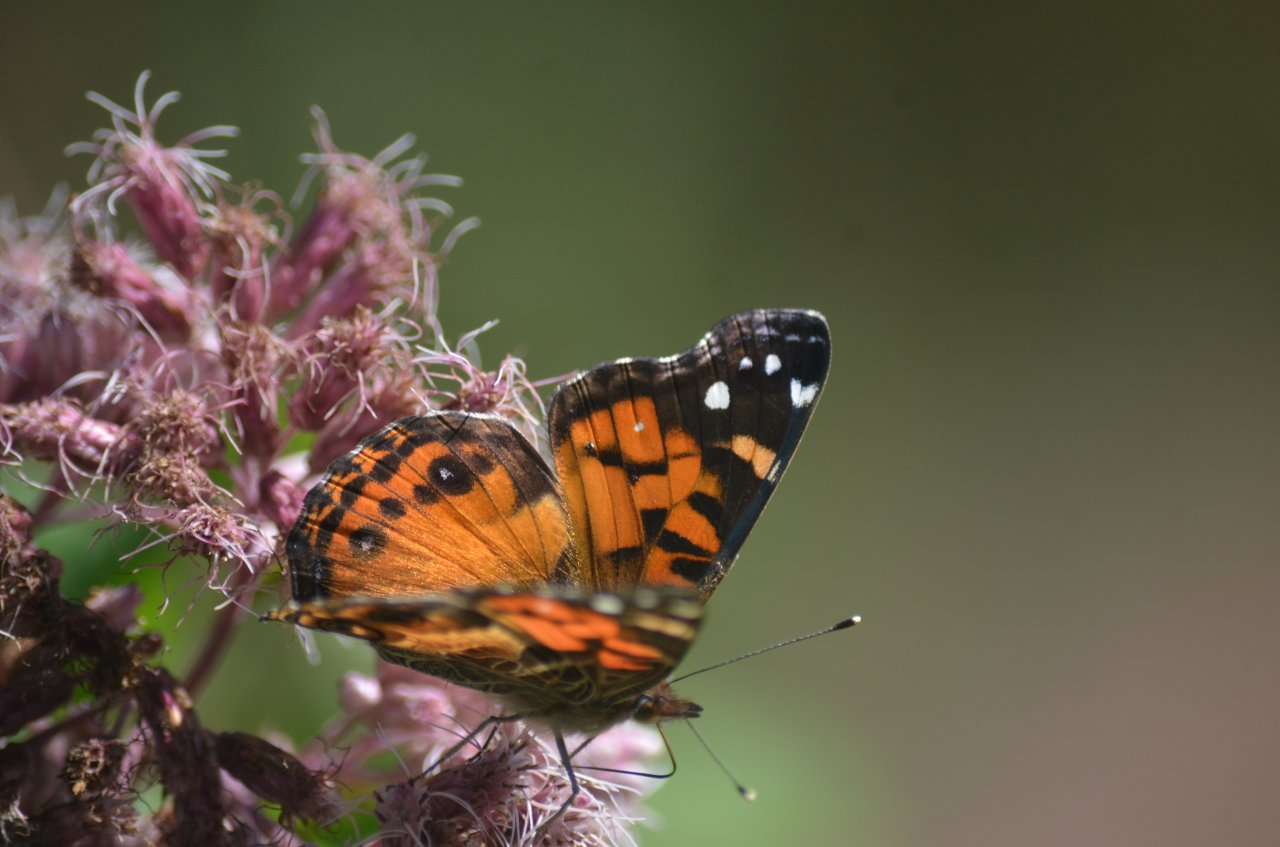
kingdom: Animalia
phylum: Arthropoda
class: Insecta
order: Lepidoptera
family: Nymphalidae
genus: Vanessa
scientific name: Vanessa virginiensis
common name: American Lady
